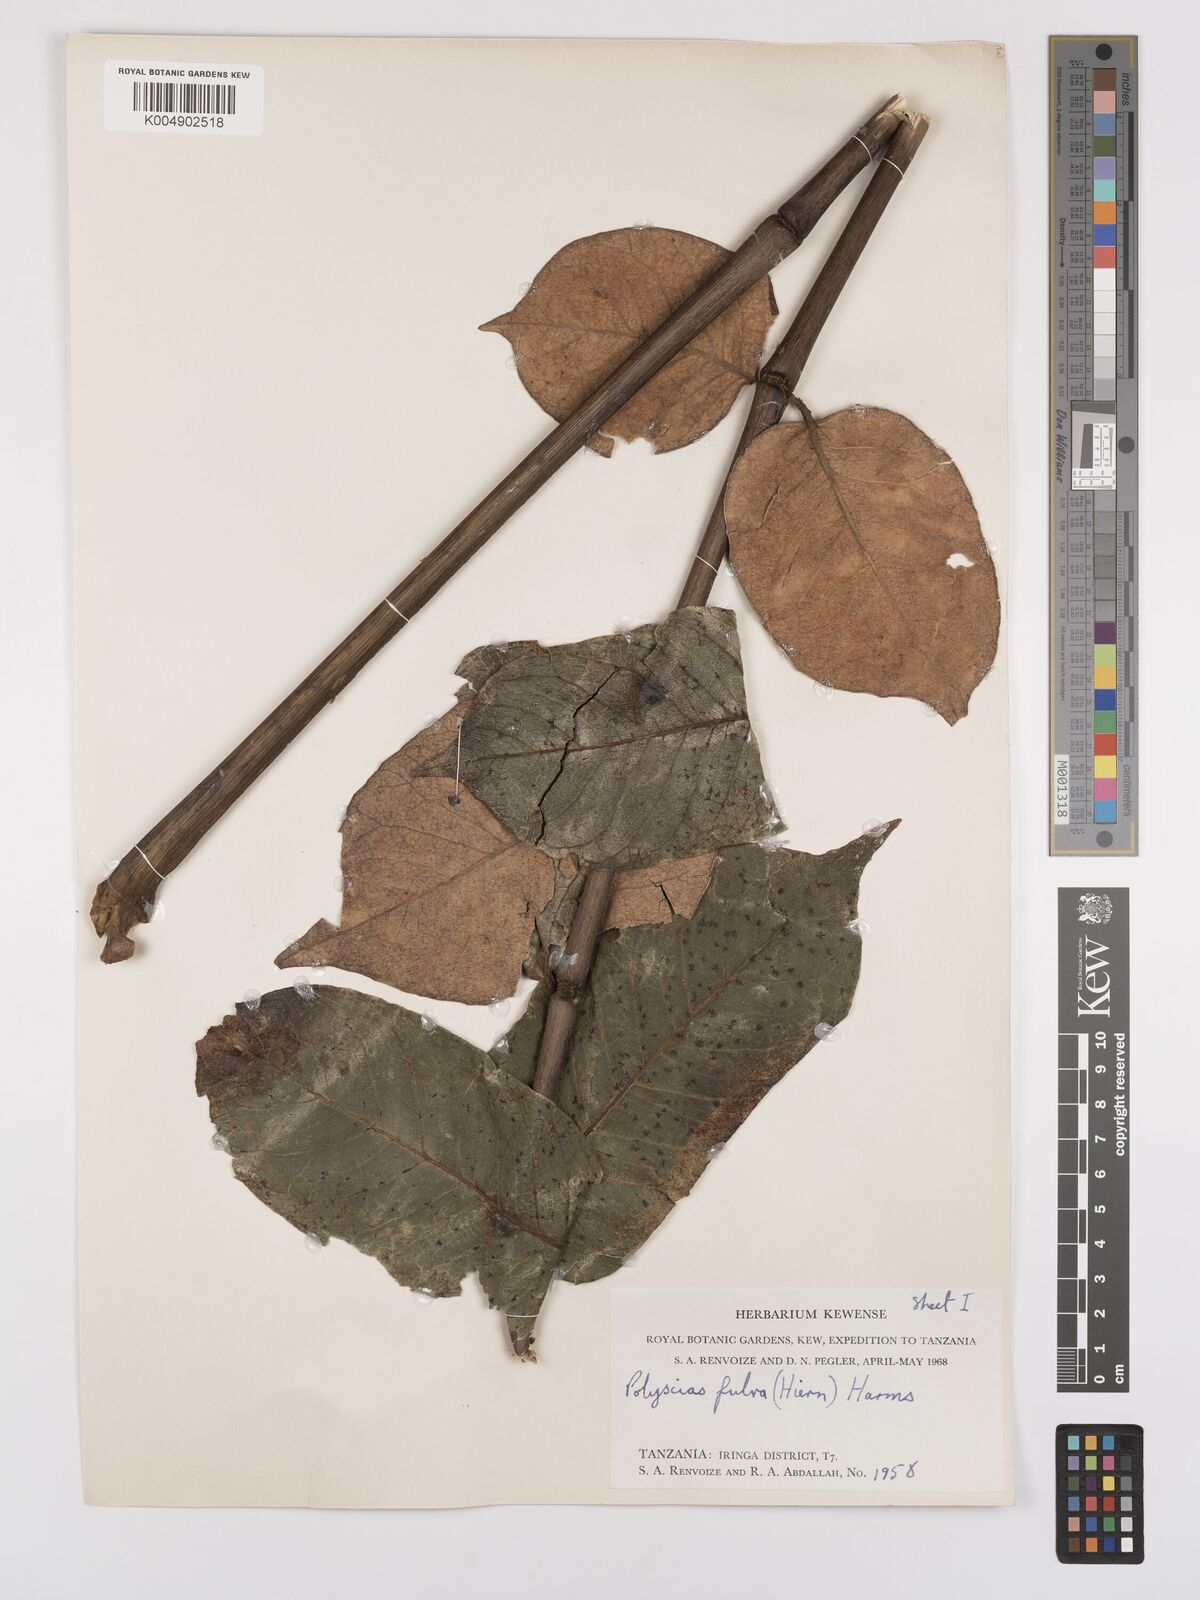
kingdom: Plantae
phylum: Tracheophyta
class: Magnoliopsida
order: Apiales
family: Araliaceae
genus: Polyscias
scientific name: Polyscias fulva
